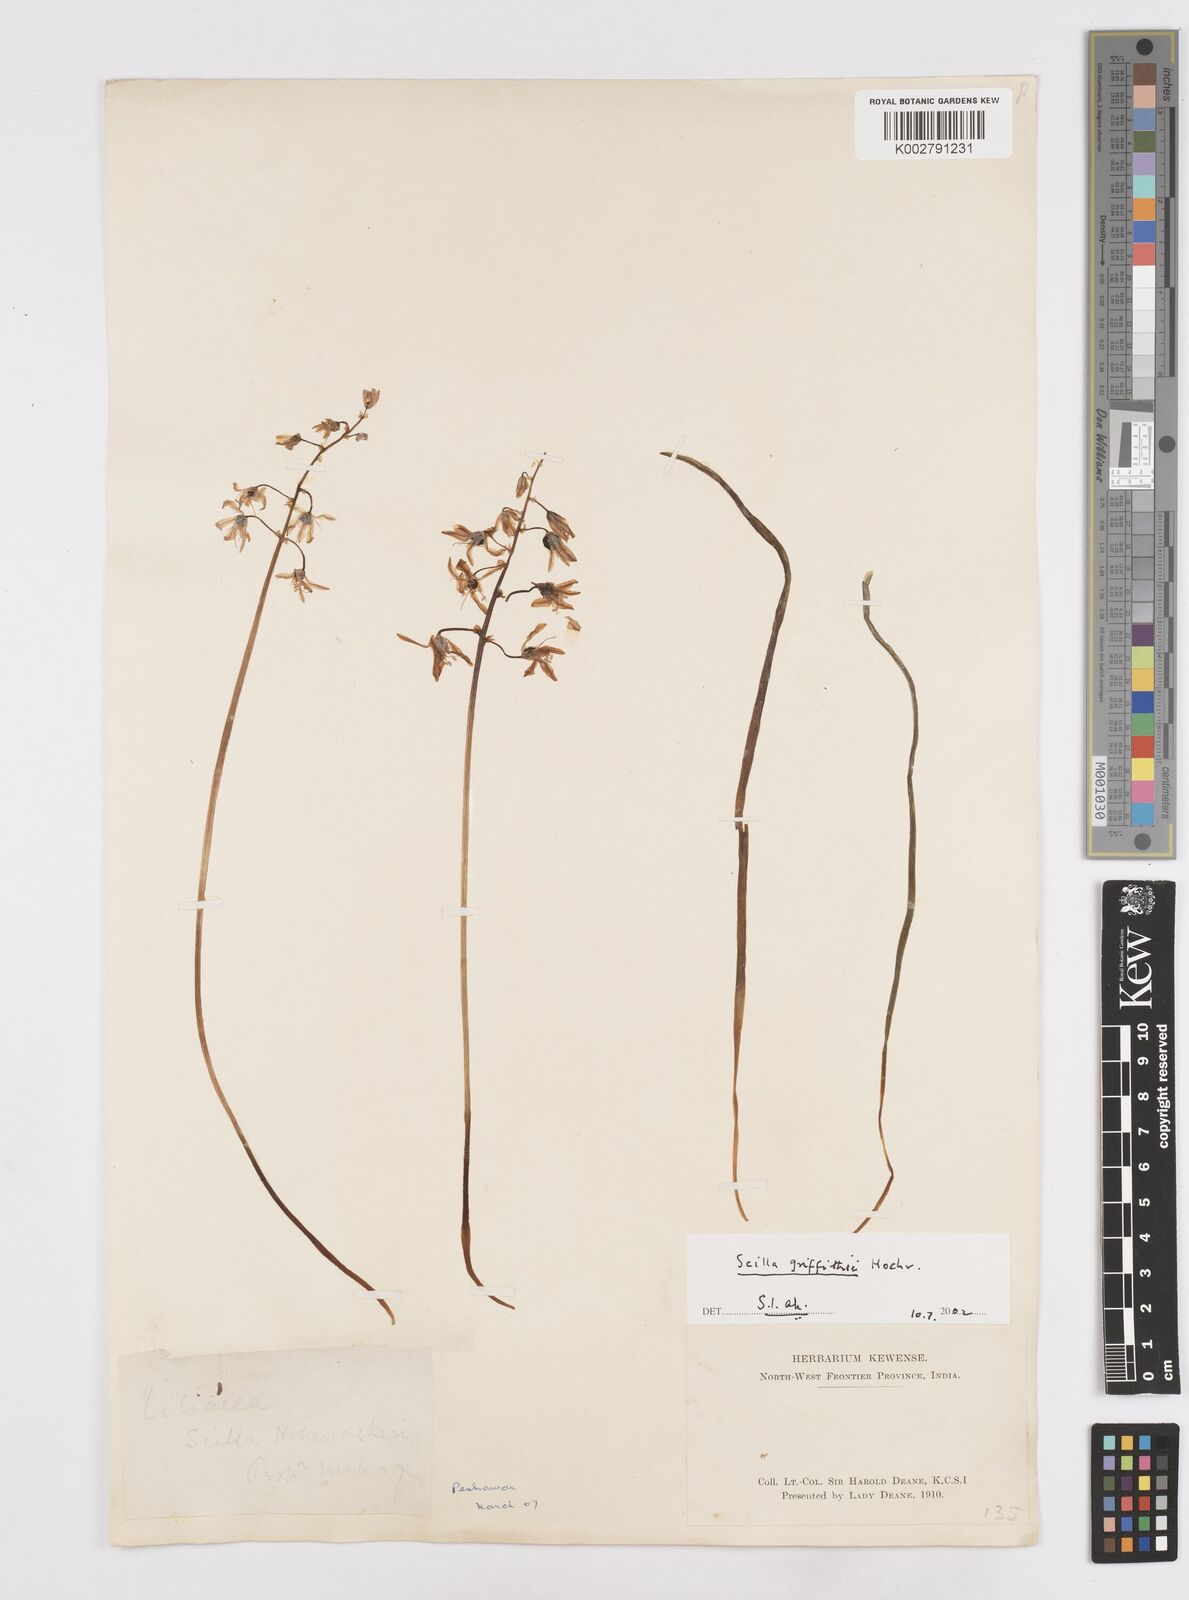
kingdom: Plantae
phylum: Tracheophyta
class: Liliopsida
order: Asparagales
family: Asparagaceae
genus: Scilla
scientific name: Scilla bifolia
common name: Alpine squill
